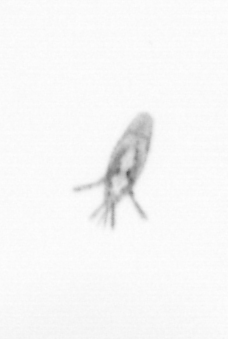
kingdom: Animalia
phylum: Arthropoda
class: Copepoda
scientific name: Copepoda
